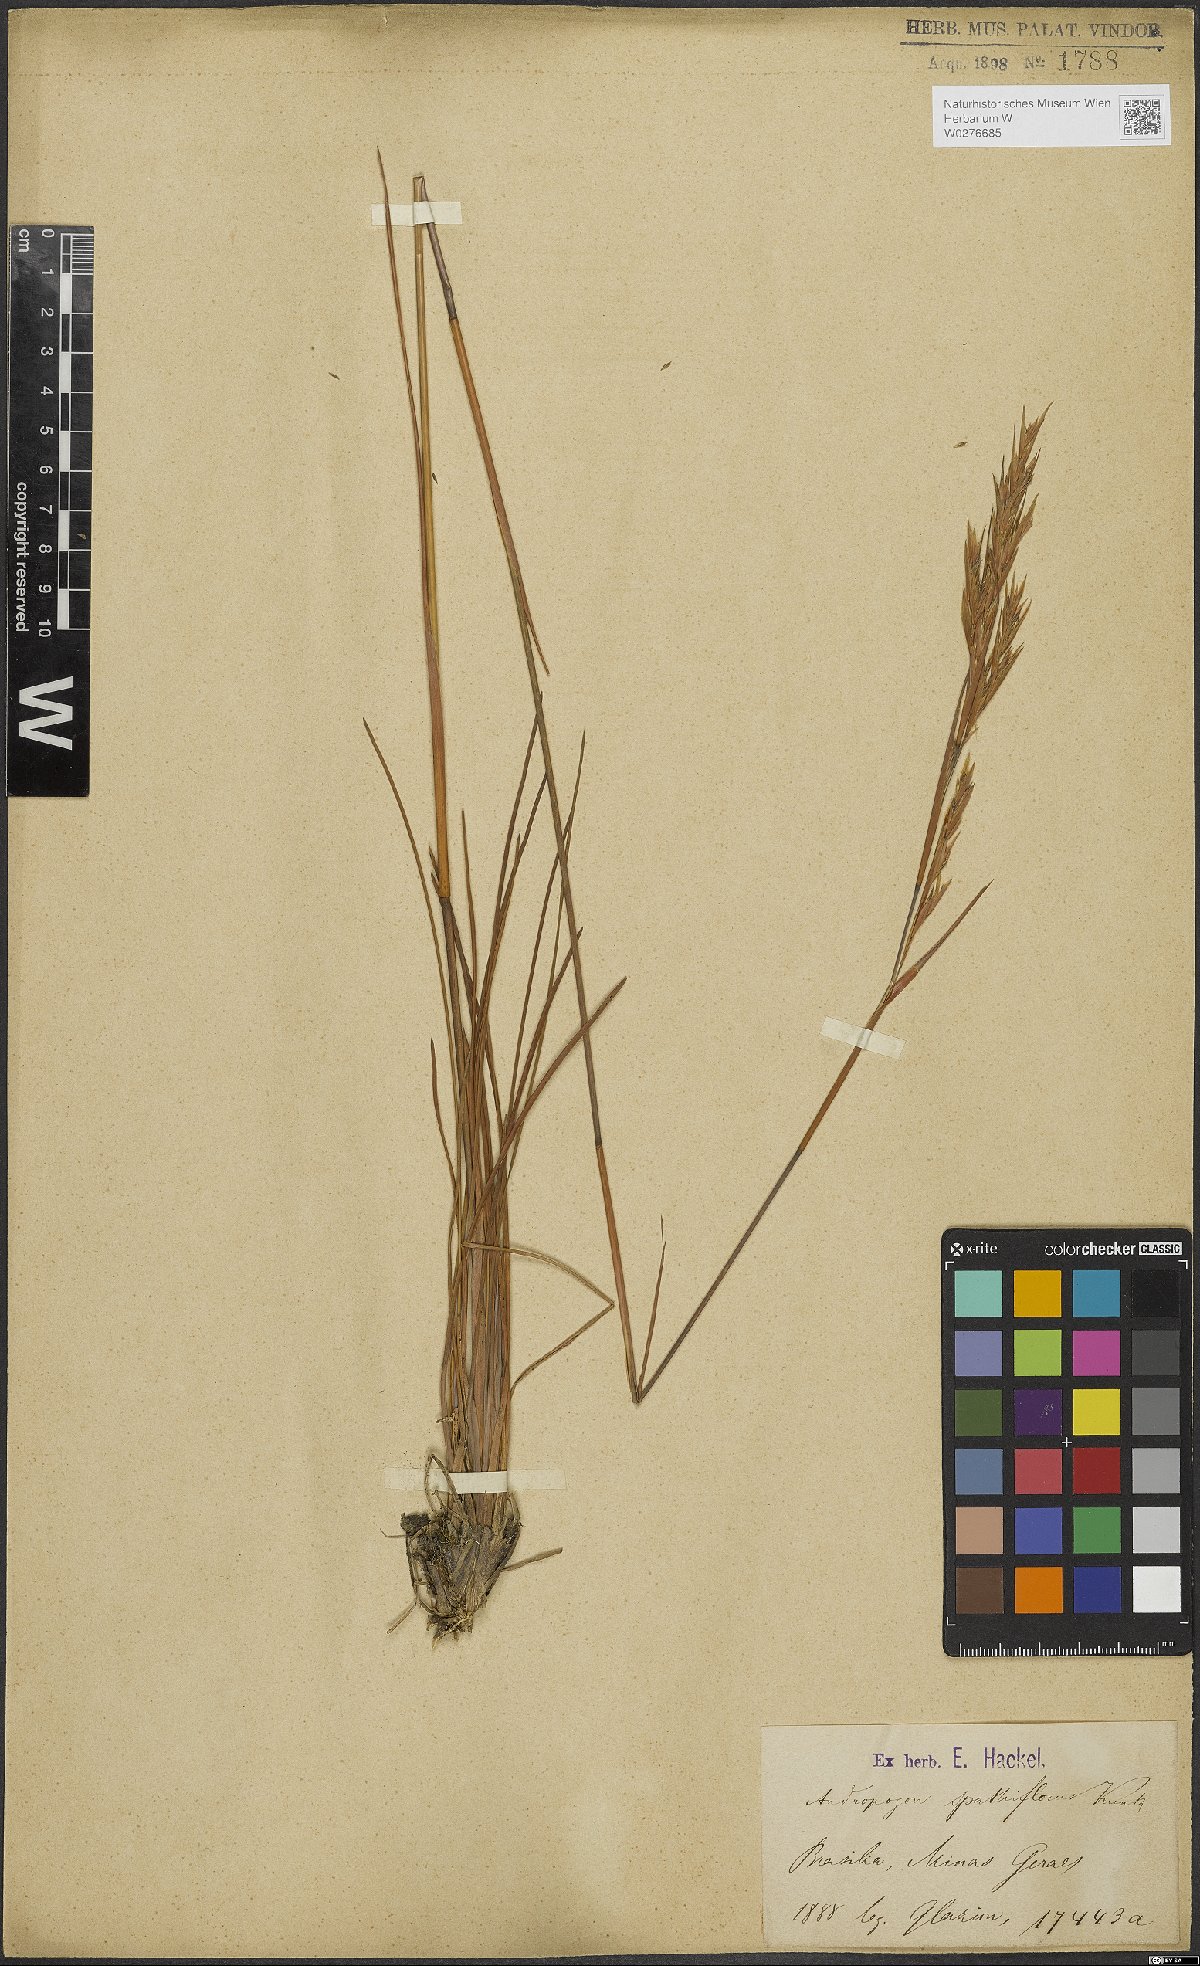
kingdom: Plantae
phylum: Tracheophyta
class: Liliopsida
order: Poales
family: Poaceae
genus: Andropogon
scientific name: Andropogon virgatus
